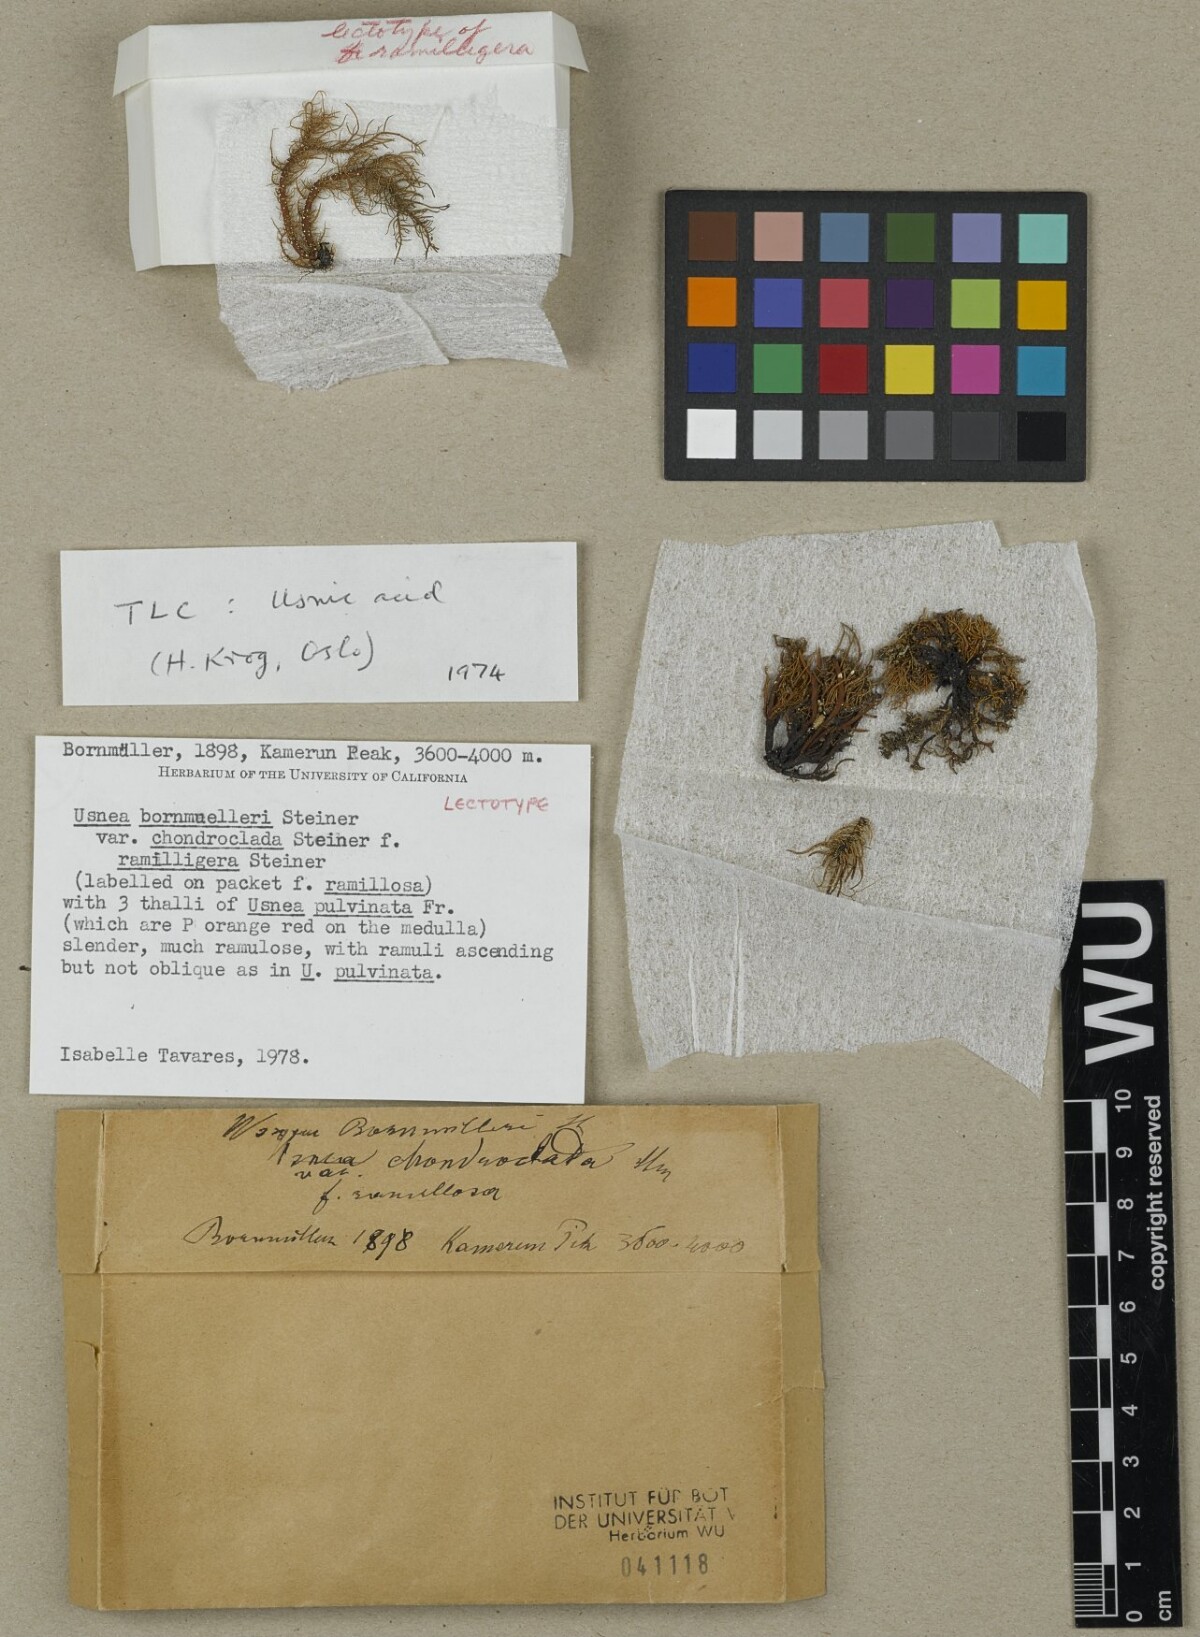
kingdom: Fungi
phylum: Ascomycota
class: Lecanoromycetes
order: Lecanorales
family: Parmeliaceae
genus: Usnea
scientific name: Usnea bornmuelleri
